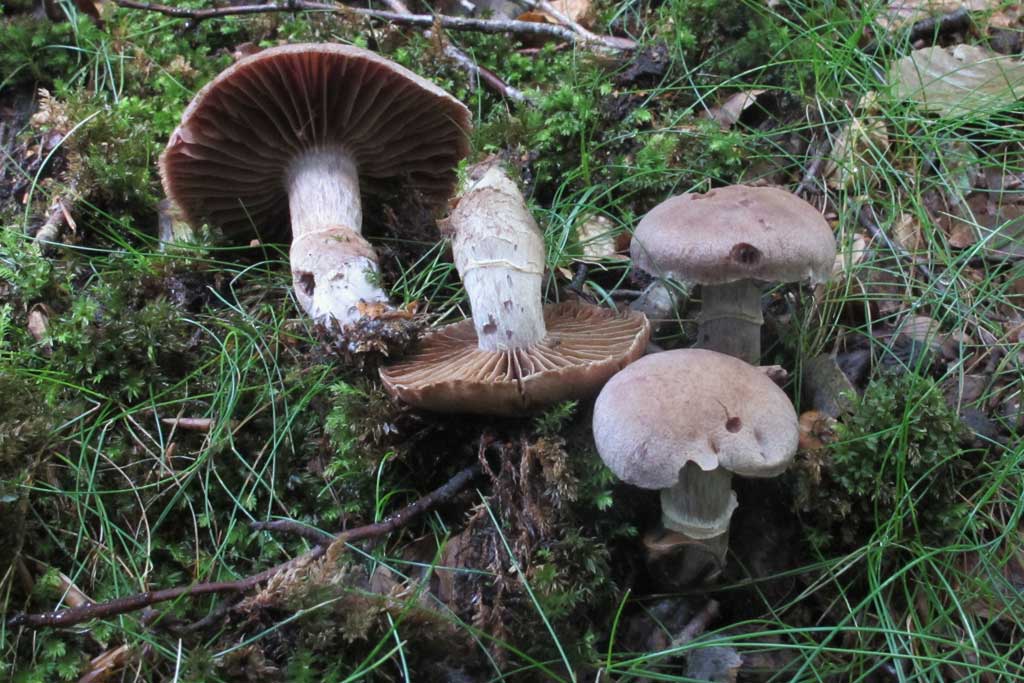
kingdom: Fungi
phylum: Basidiomycota
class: Agaricomycetes
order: Agaricales
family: Cortinariaceae
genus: Cortinarius
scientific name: Cortinarius torvus
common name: champignonagtig slørhat
